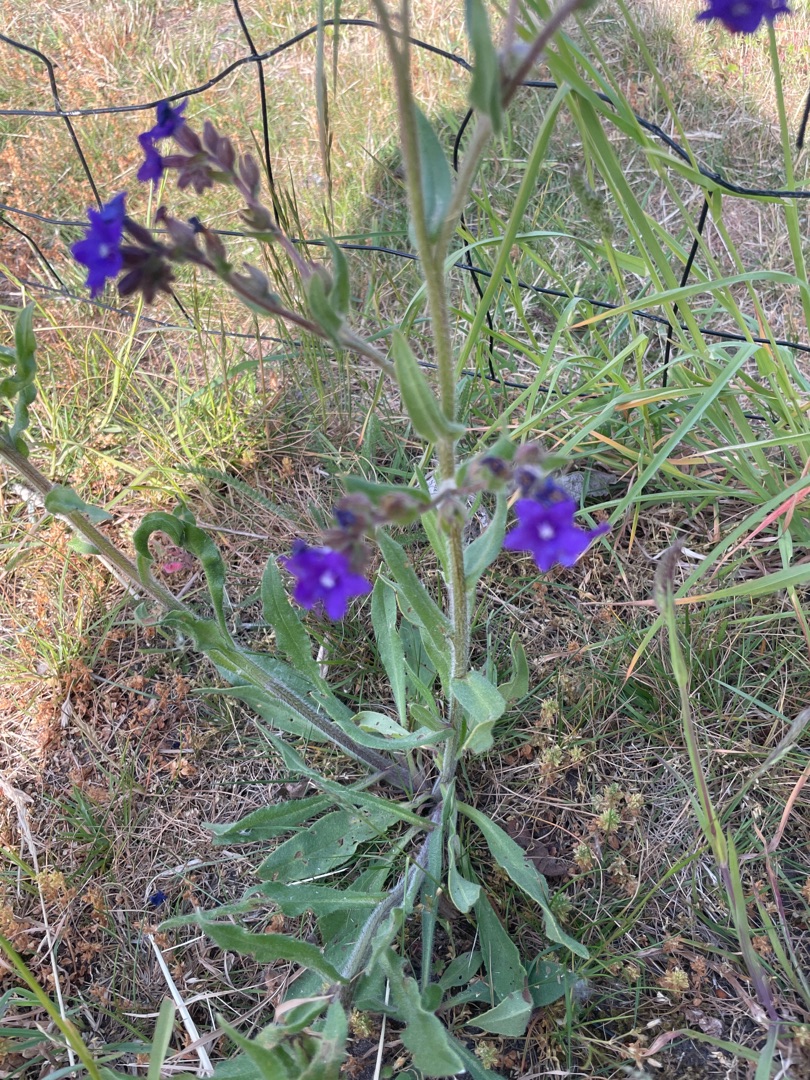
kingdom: Plantae
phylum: Tracheophyta
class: Magnoliopsida
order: Boraginales
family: Boraginaceae
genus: Anchusa
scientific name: Anchusa officinalis
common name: Læge-oksetunge
